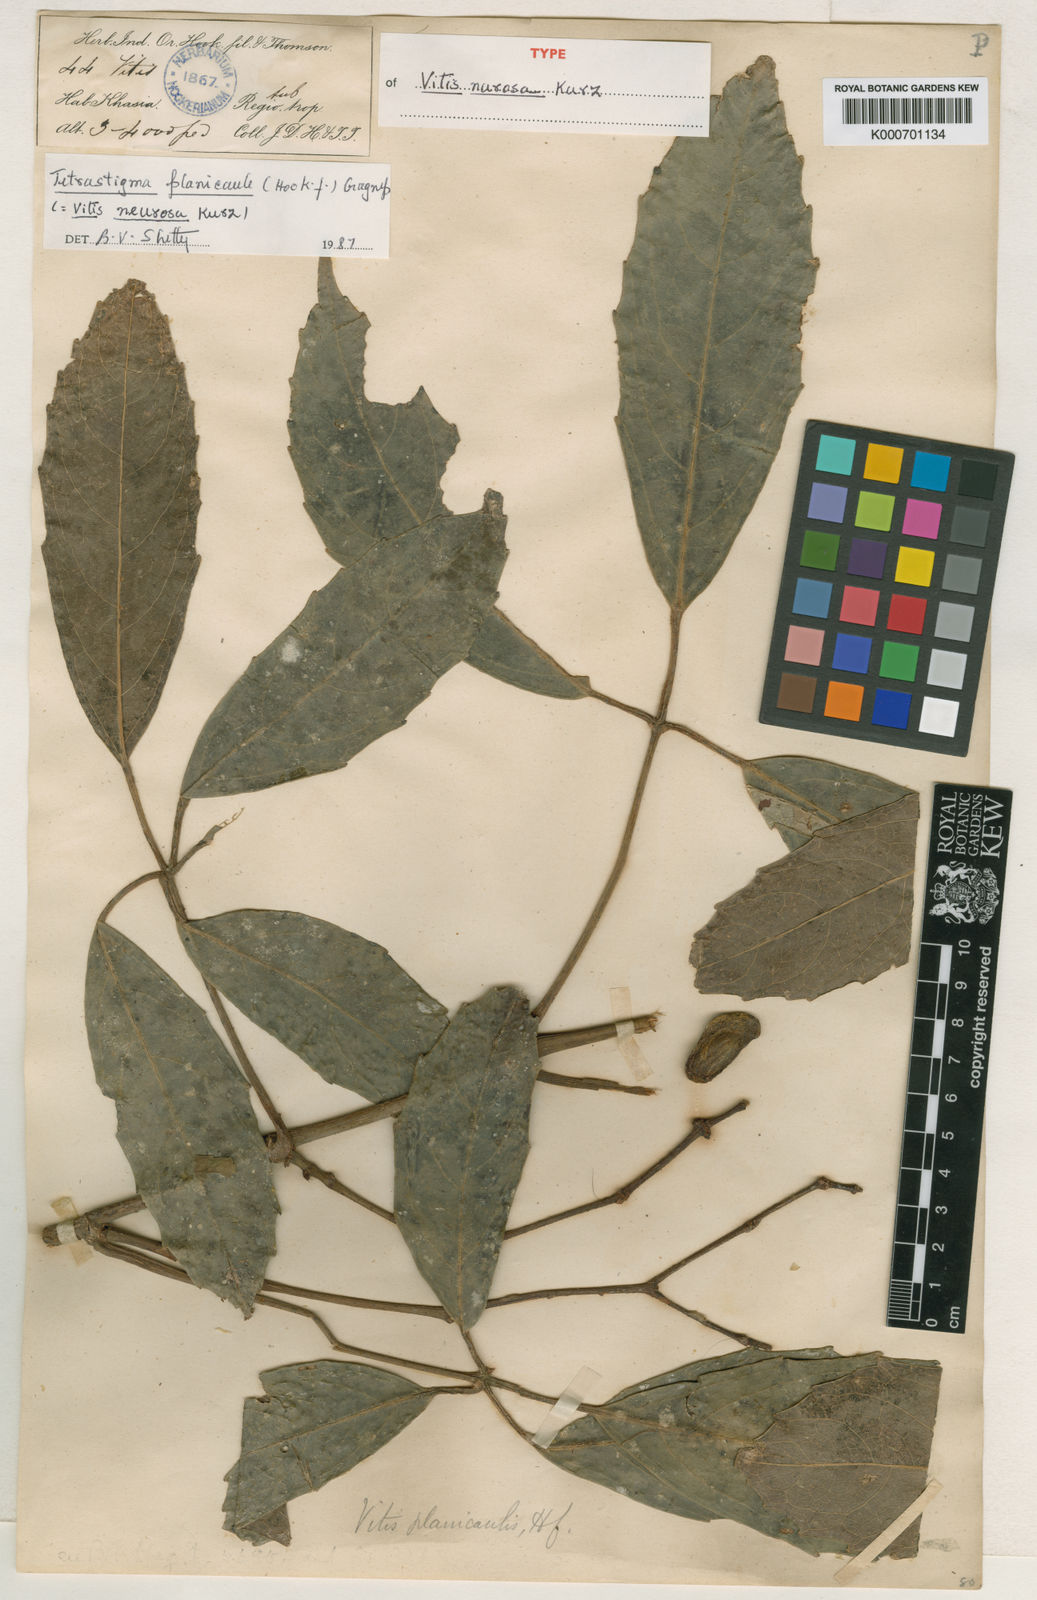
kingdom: Plantae
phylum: Tracheophyta
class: Magnoliopsida
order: Vitales
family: Vitaceae
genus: Tetrastigma
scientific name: Tetrastigma planicaule
